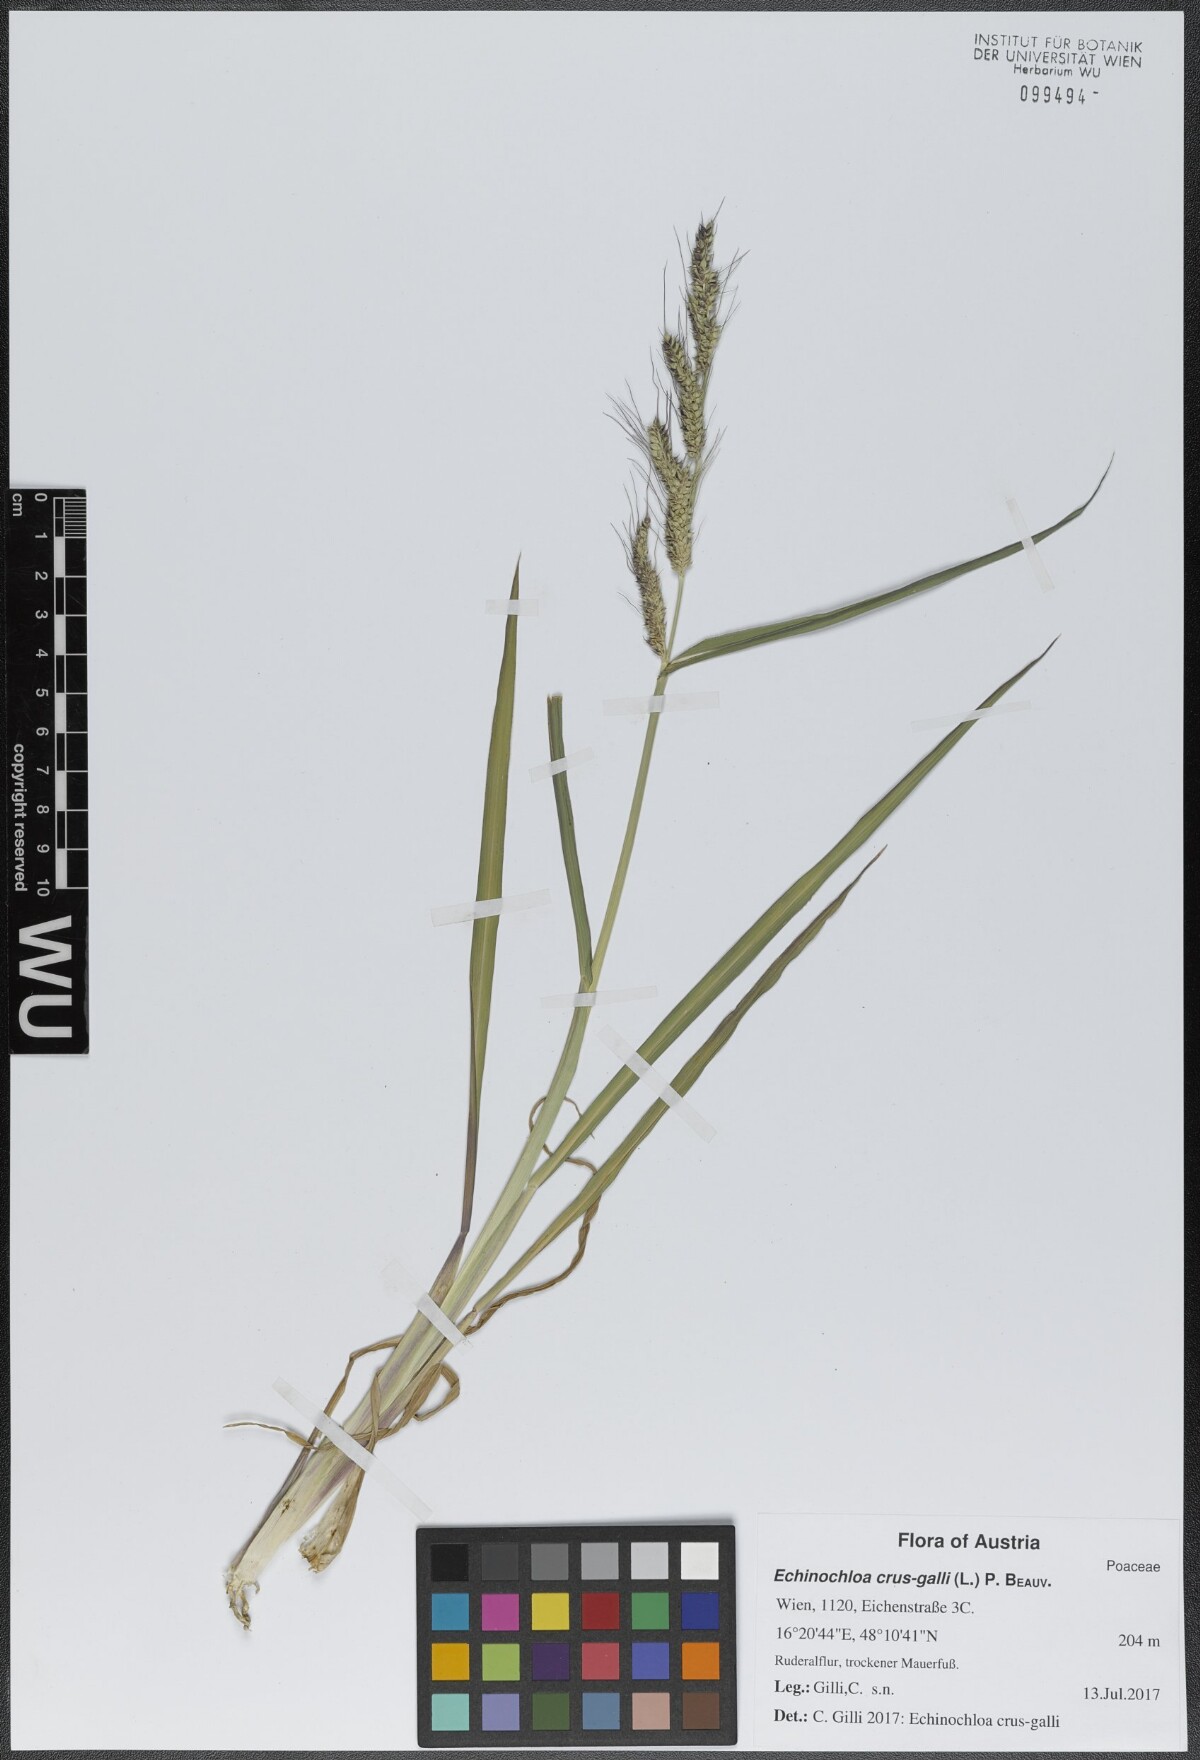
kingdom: Plantae
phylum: Tracheophyta
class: Liliopsida
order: Poales
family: Poaceae
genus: Echinochloa
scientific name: Echinochloa crus-galli
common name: Cockspur
